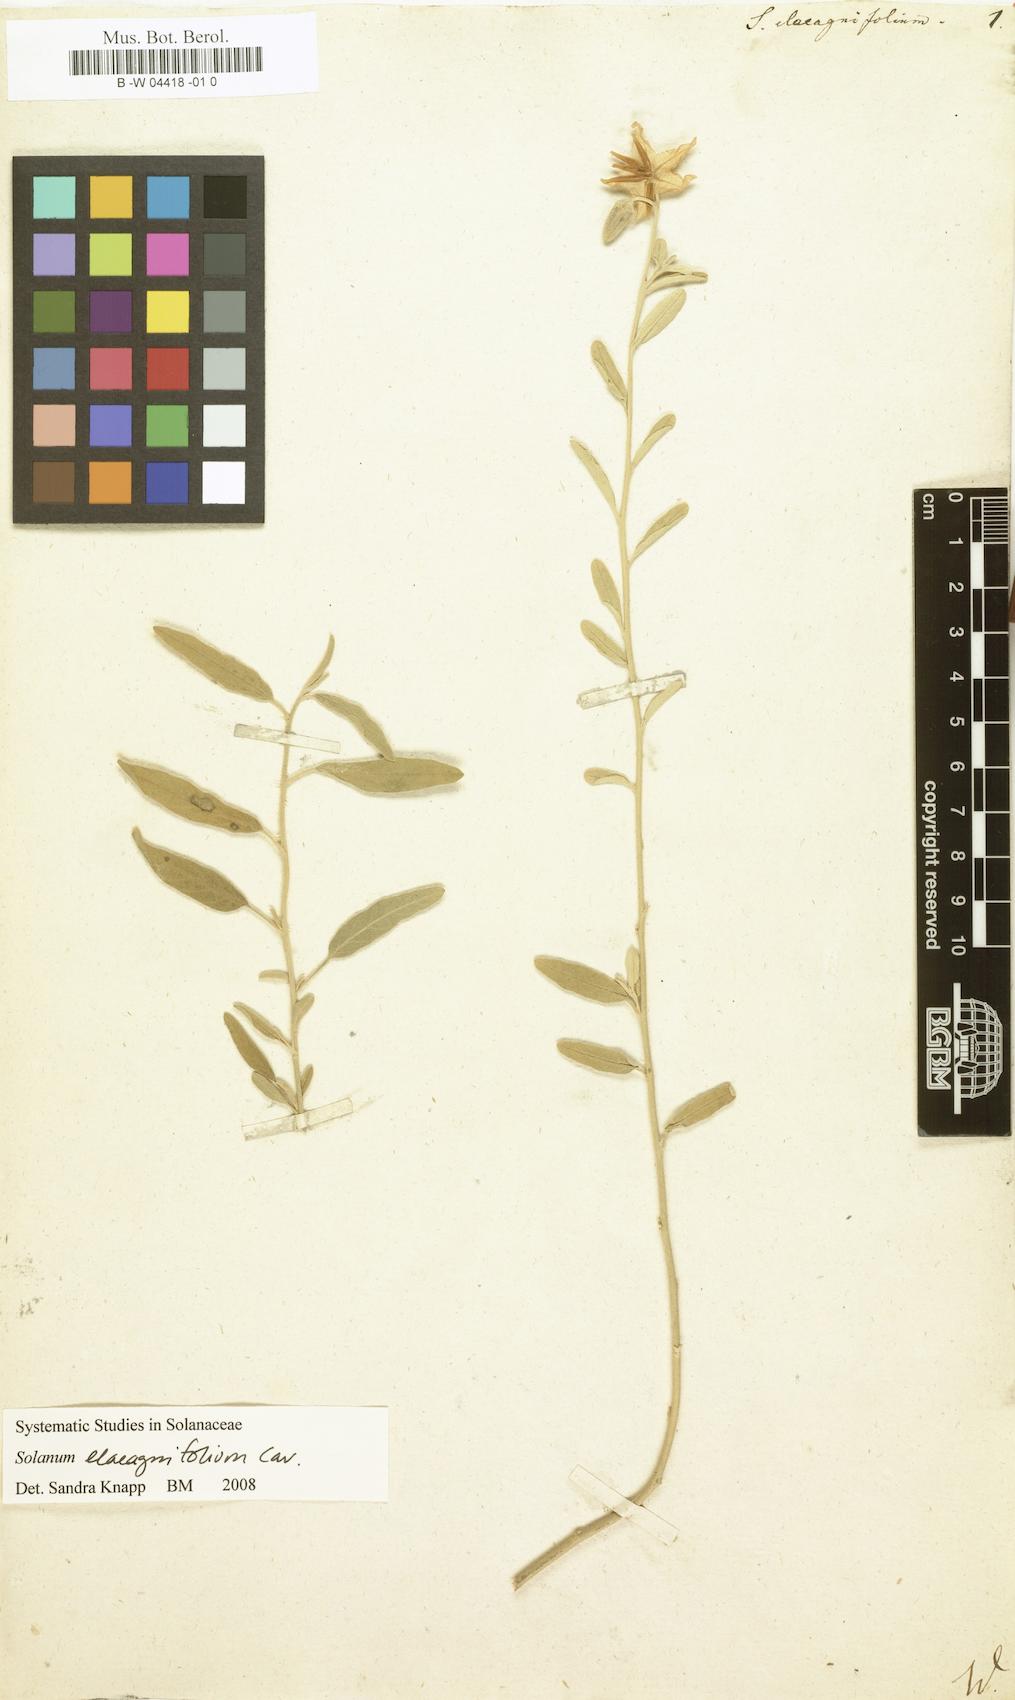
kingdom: Plantae
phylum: Tracheophyta
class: Magnoliopsida
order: Solanales
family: Solanaceae
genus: Solanum
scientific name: Solanum elaeagnifolium
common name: Silverleaf nightshade
